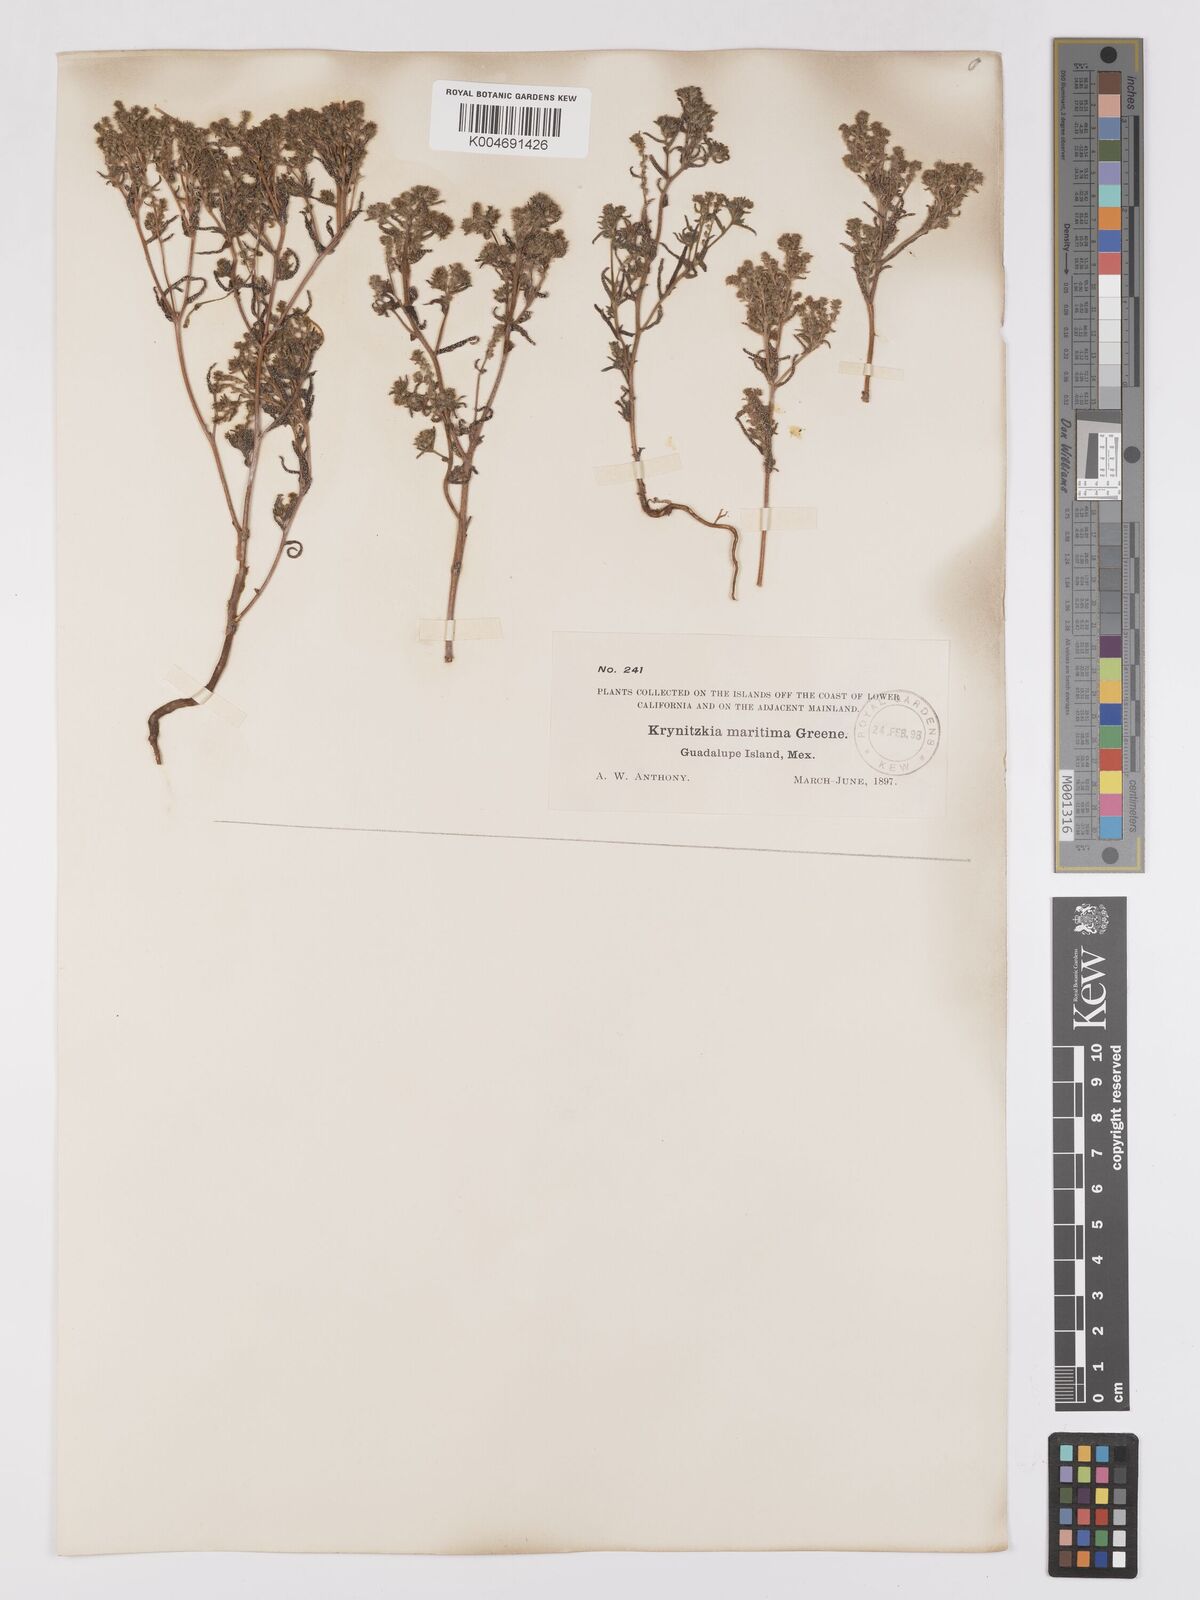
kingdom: Plantae
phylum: Tracheophyta
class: Magnoliopsida
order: Boraginales
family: Boraginaceae
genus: Cryptantha
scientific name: Cryptantha maritima
